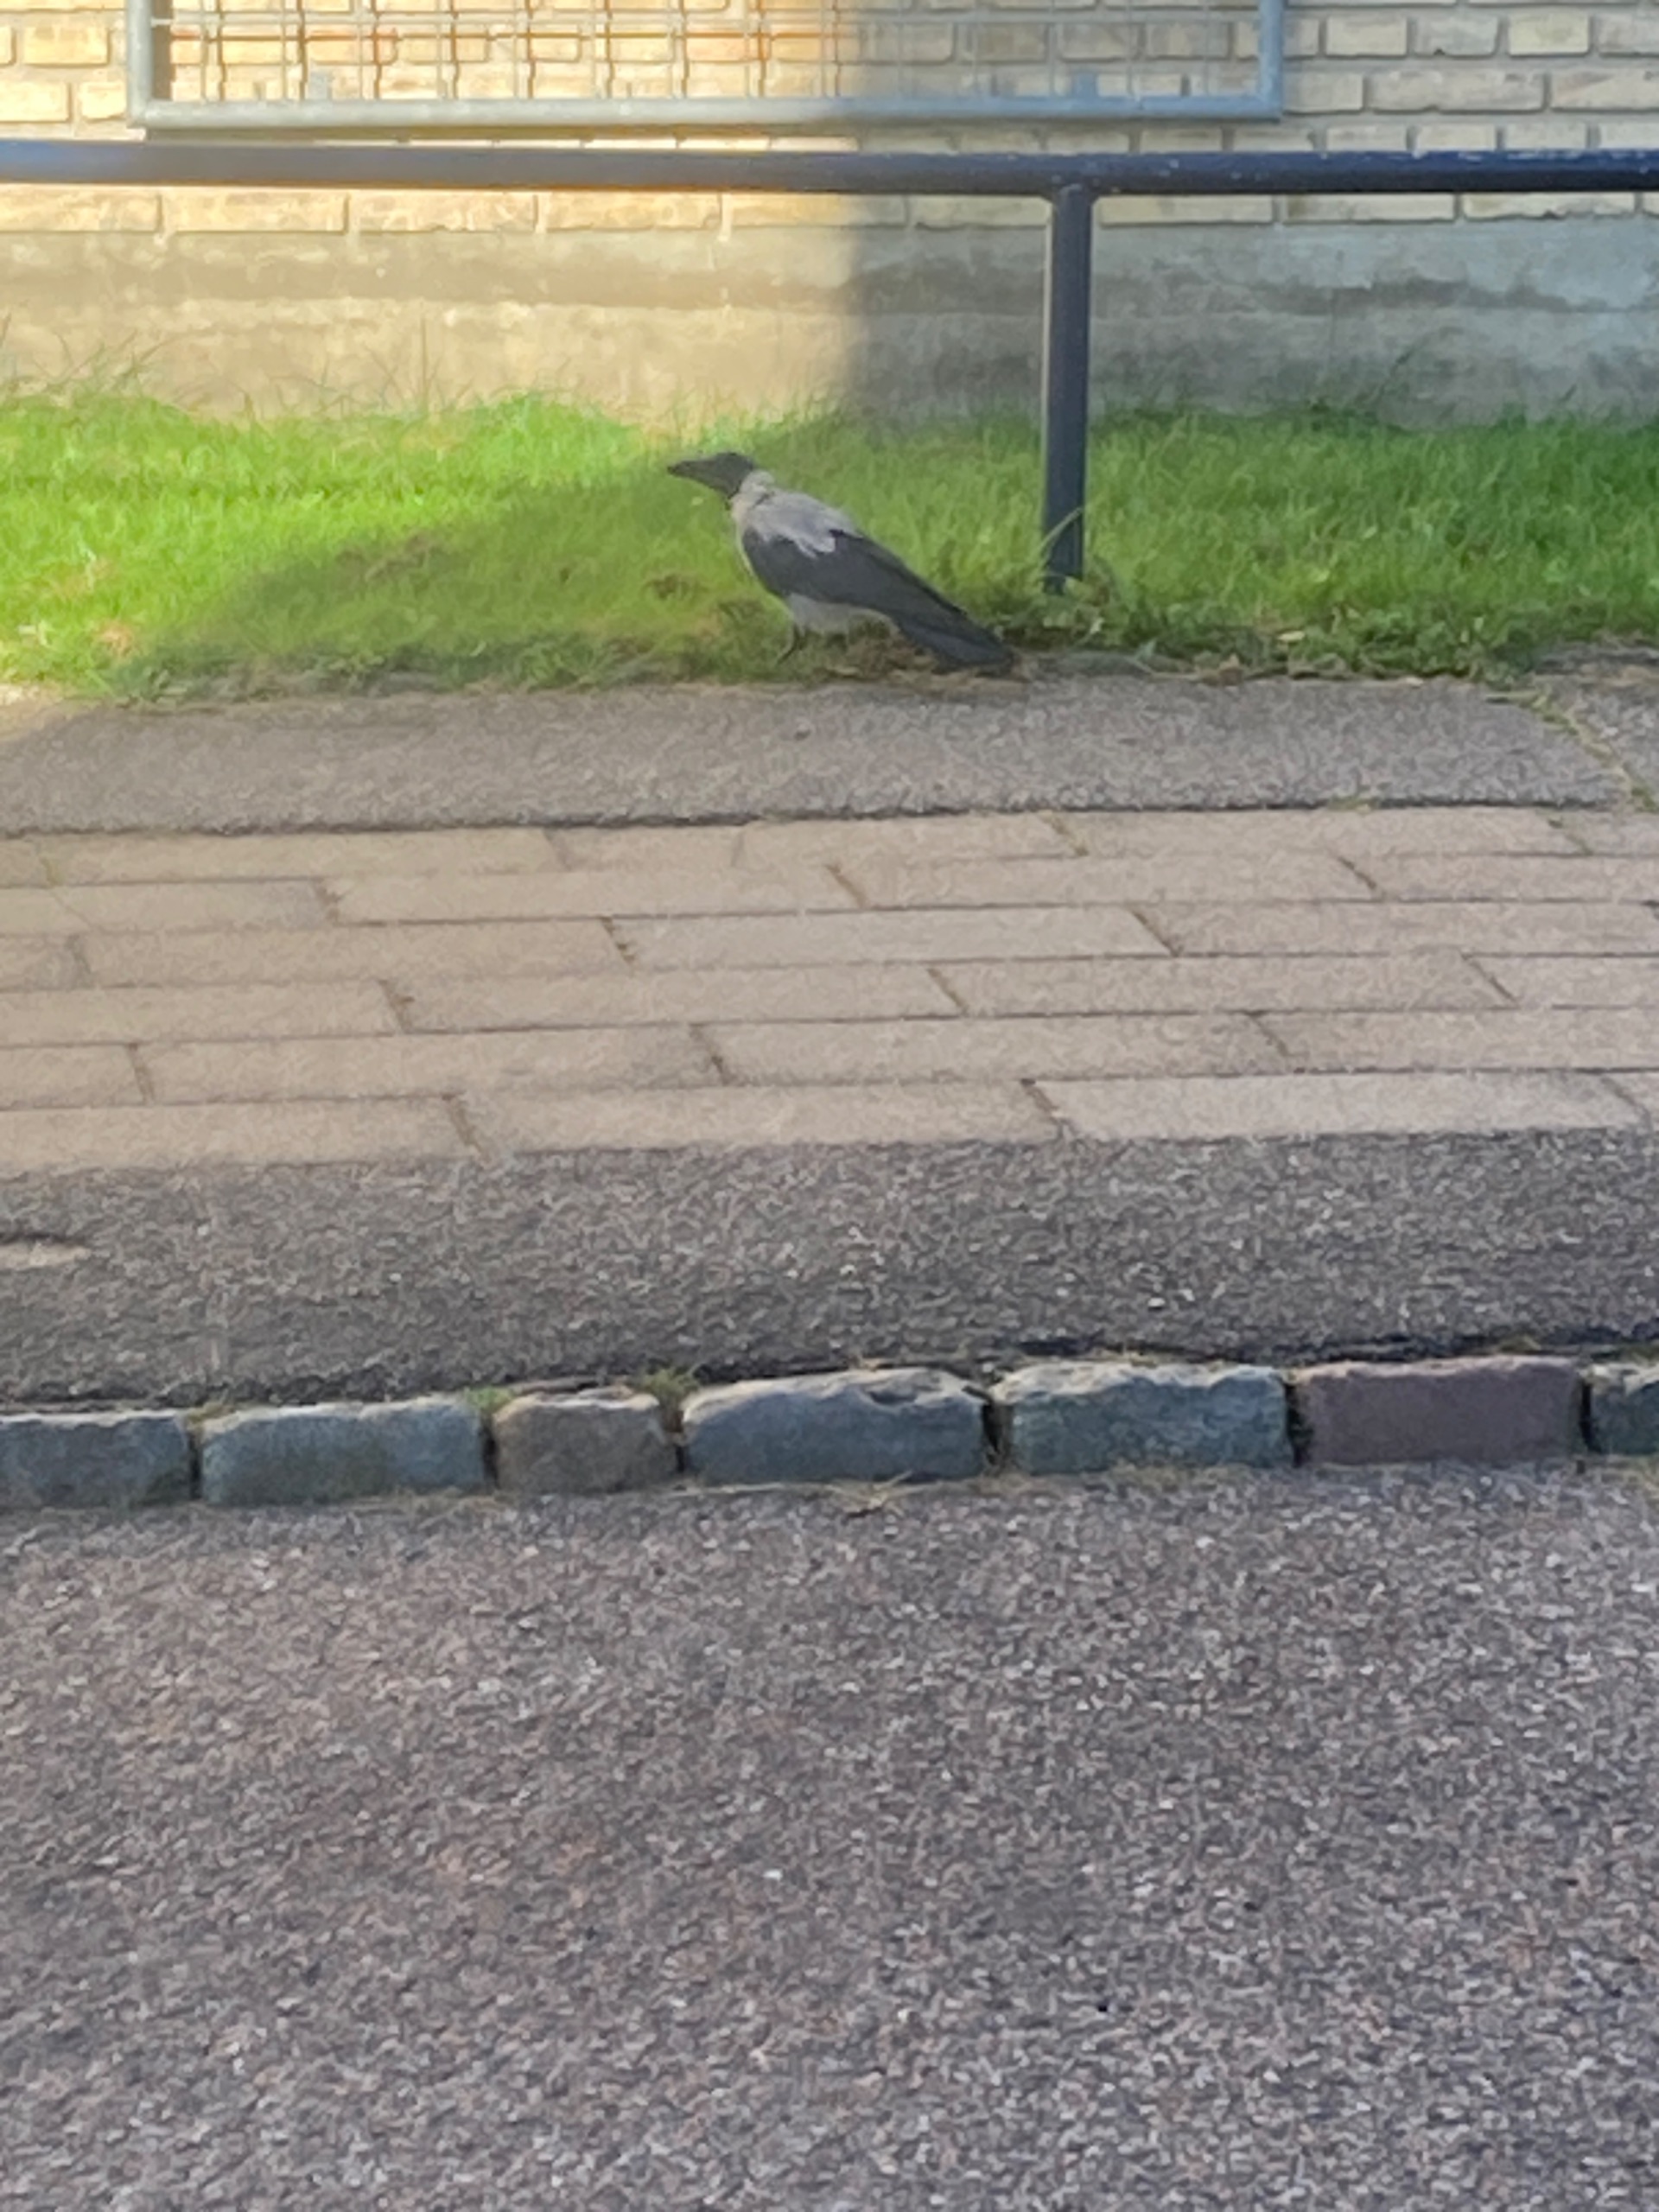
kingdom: Animalia
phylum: Chordata
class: Aves
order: Passeriformes
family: Corvidae
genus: Corvus
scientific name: Corvus cornix
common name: Gråkrage
